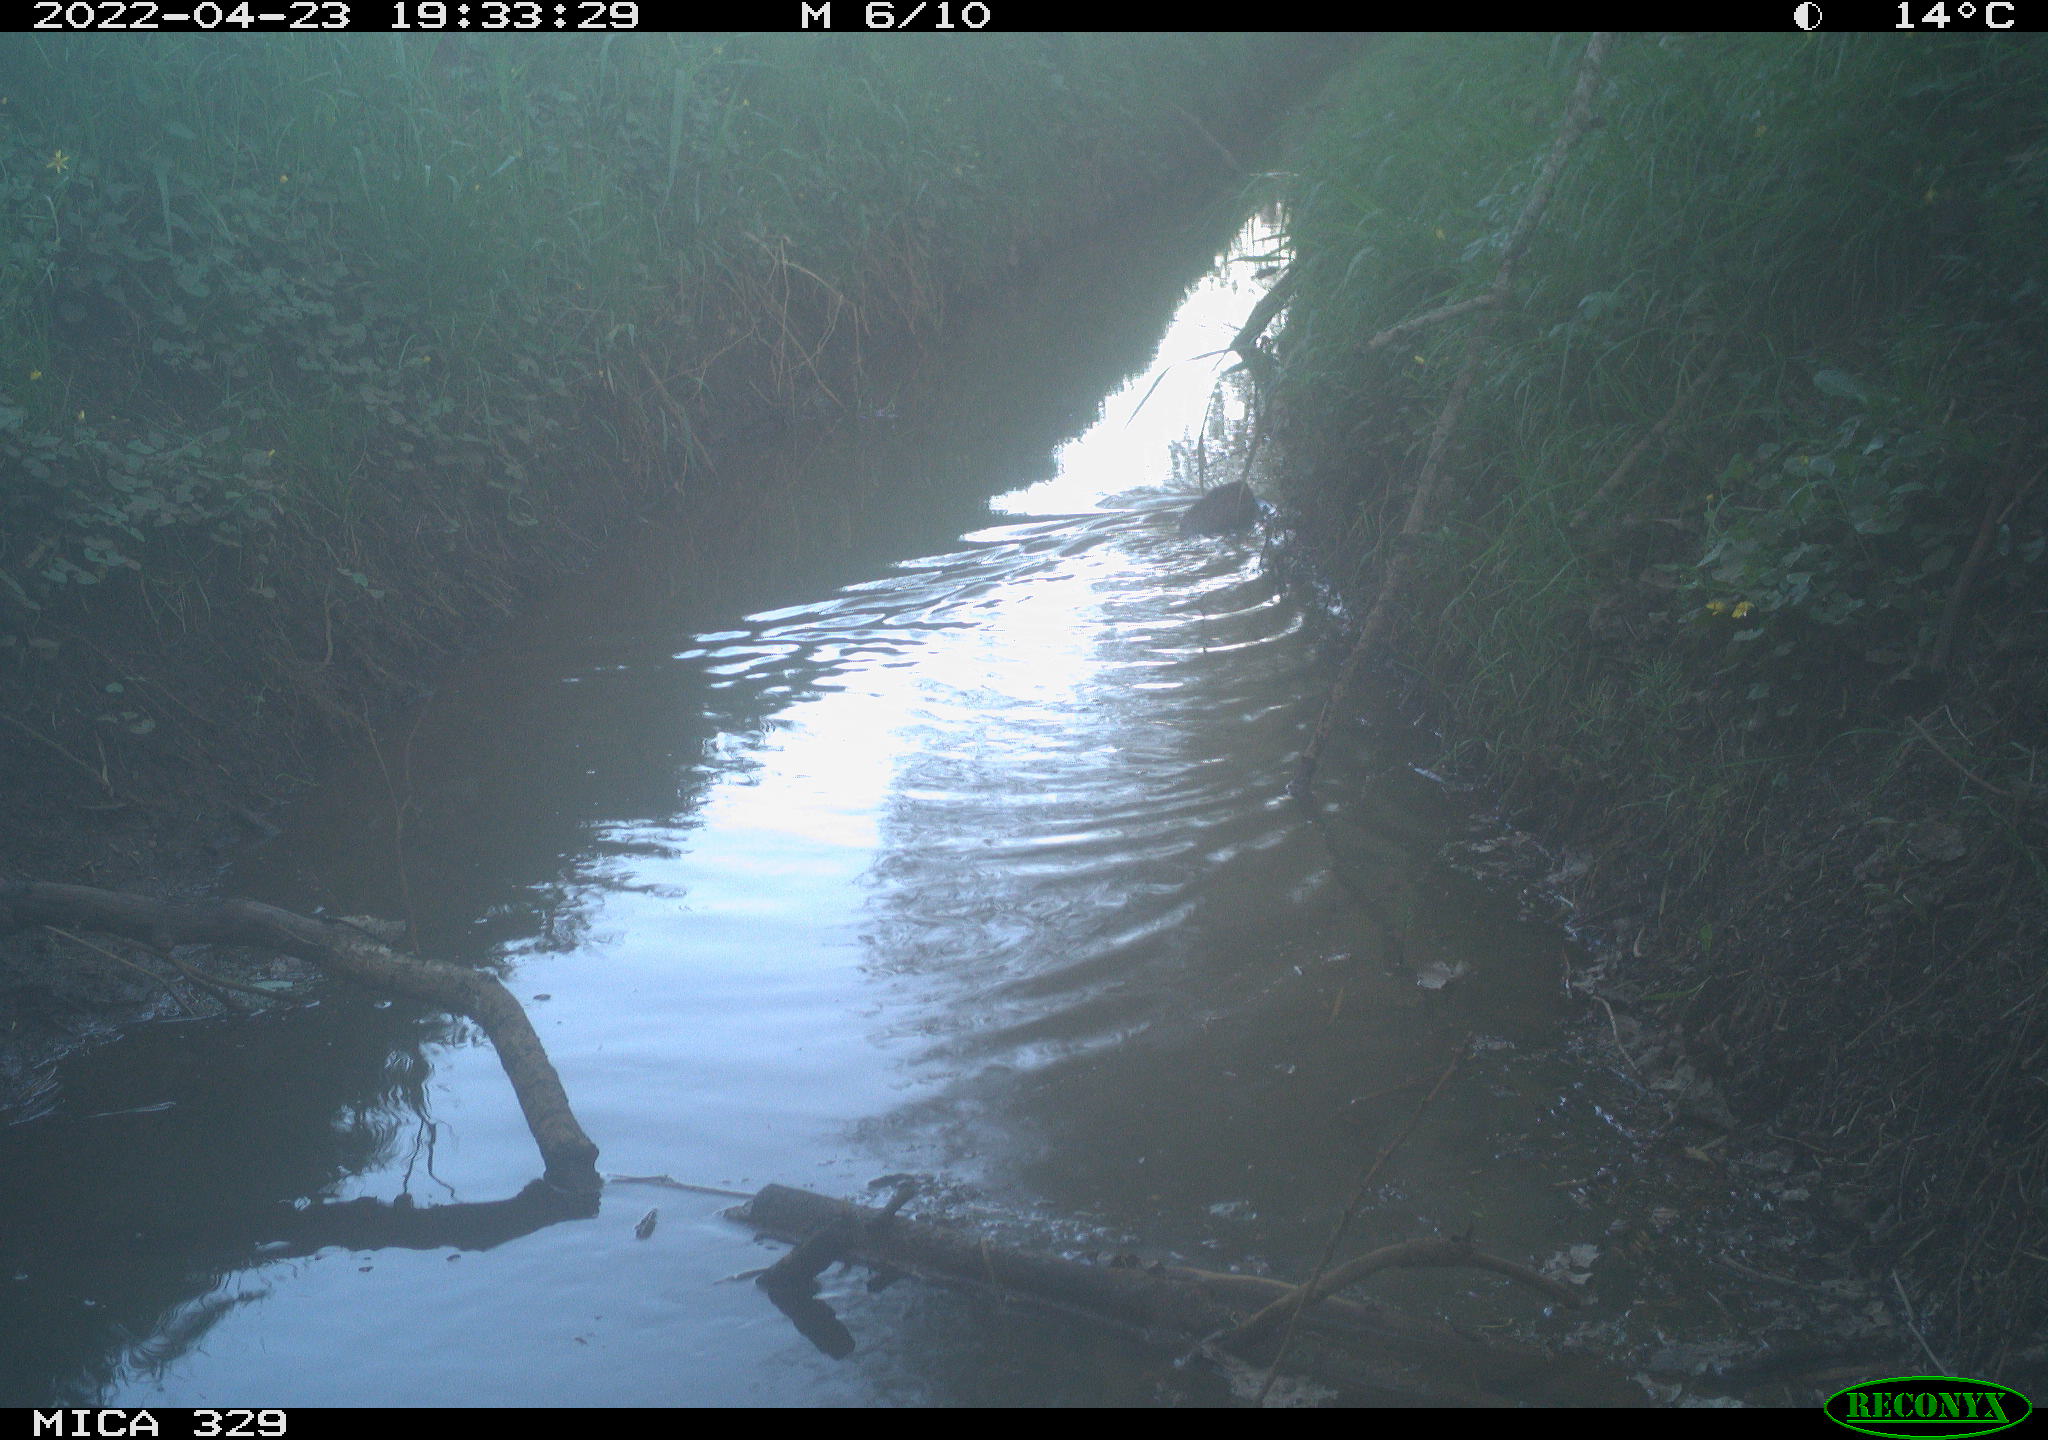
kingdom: Animalia
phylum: Chordata
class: Mammalia
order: Rodentia
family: Cricetidae
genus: Ondatra
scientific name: Ondatra zibethicus
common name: Muskrat
